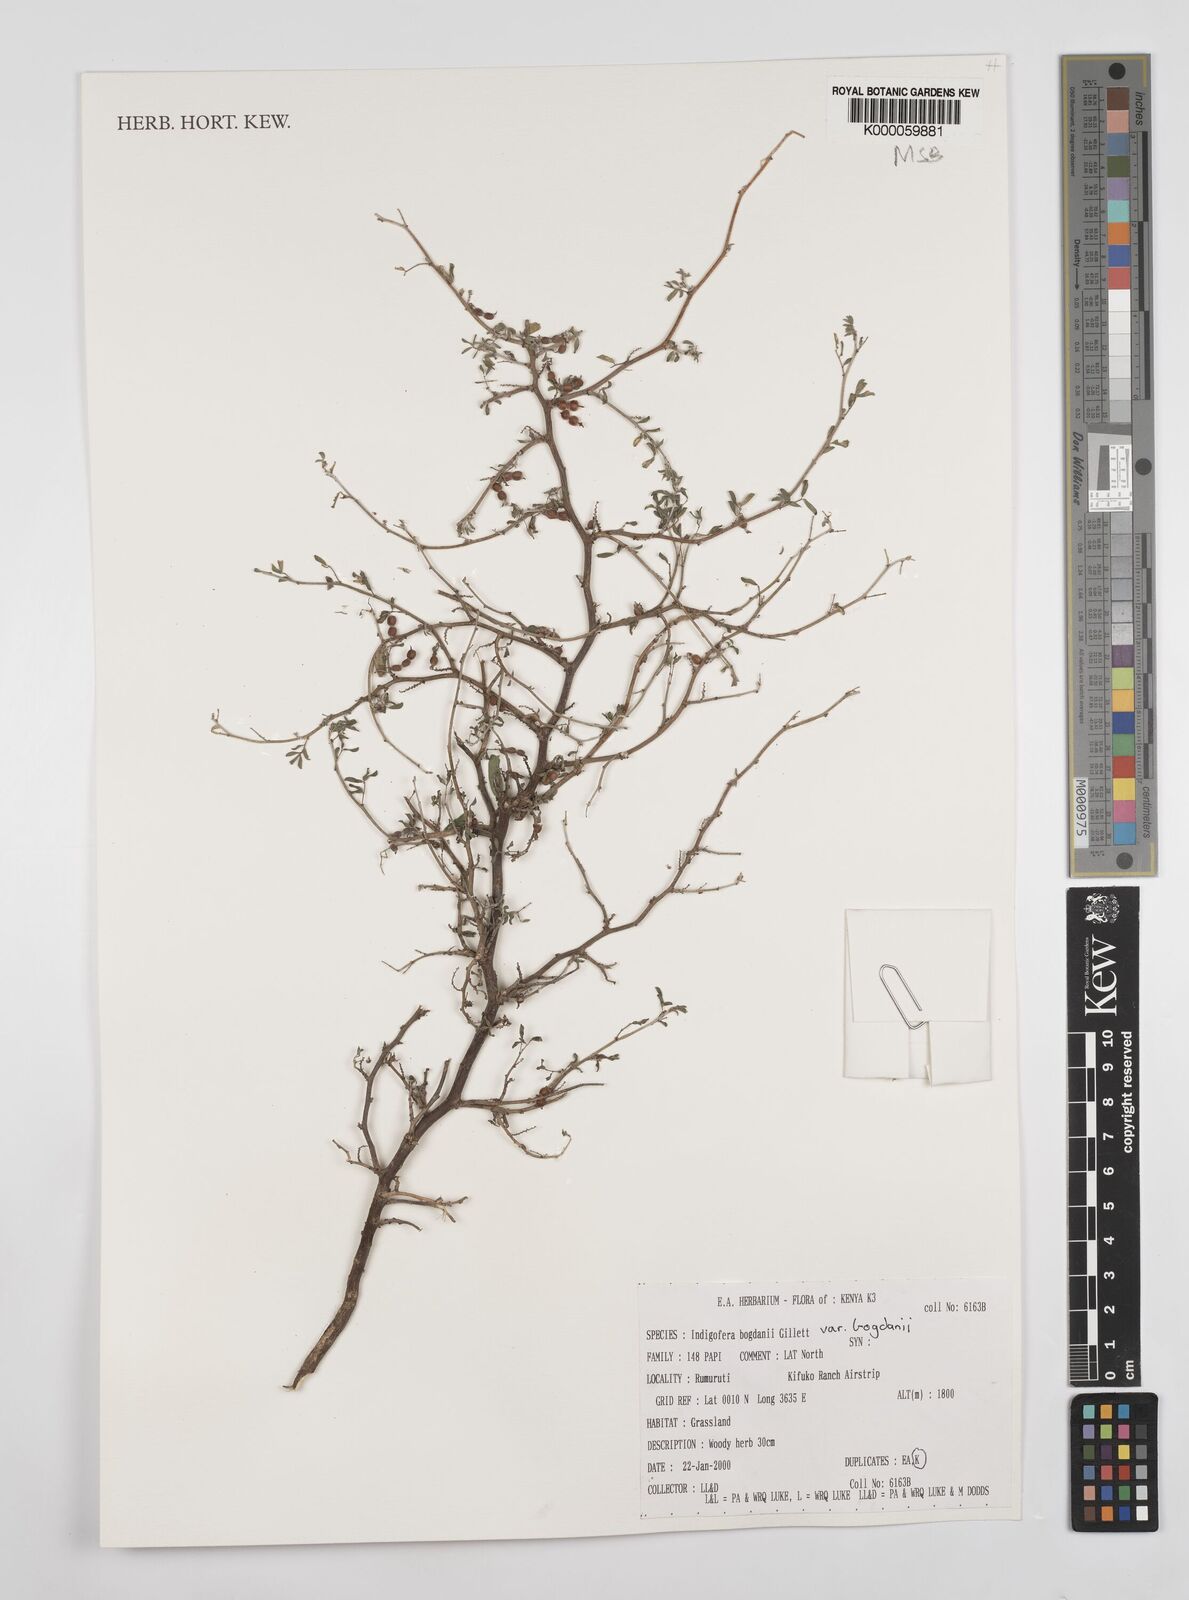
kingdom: Plantae
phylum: Tracheophyta
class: Magnoliopsida
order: Fabales
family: Fabaceae
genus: Indigofera
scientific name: Indigofera bogdanii
